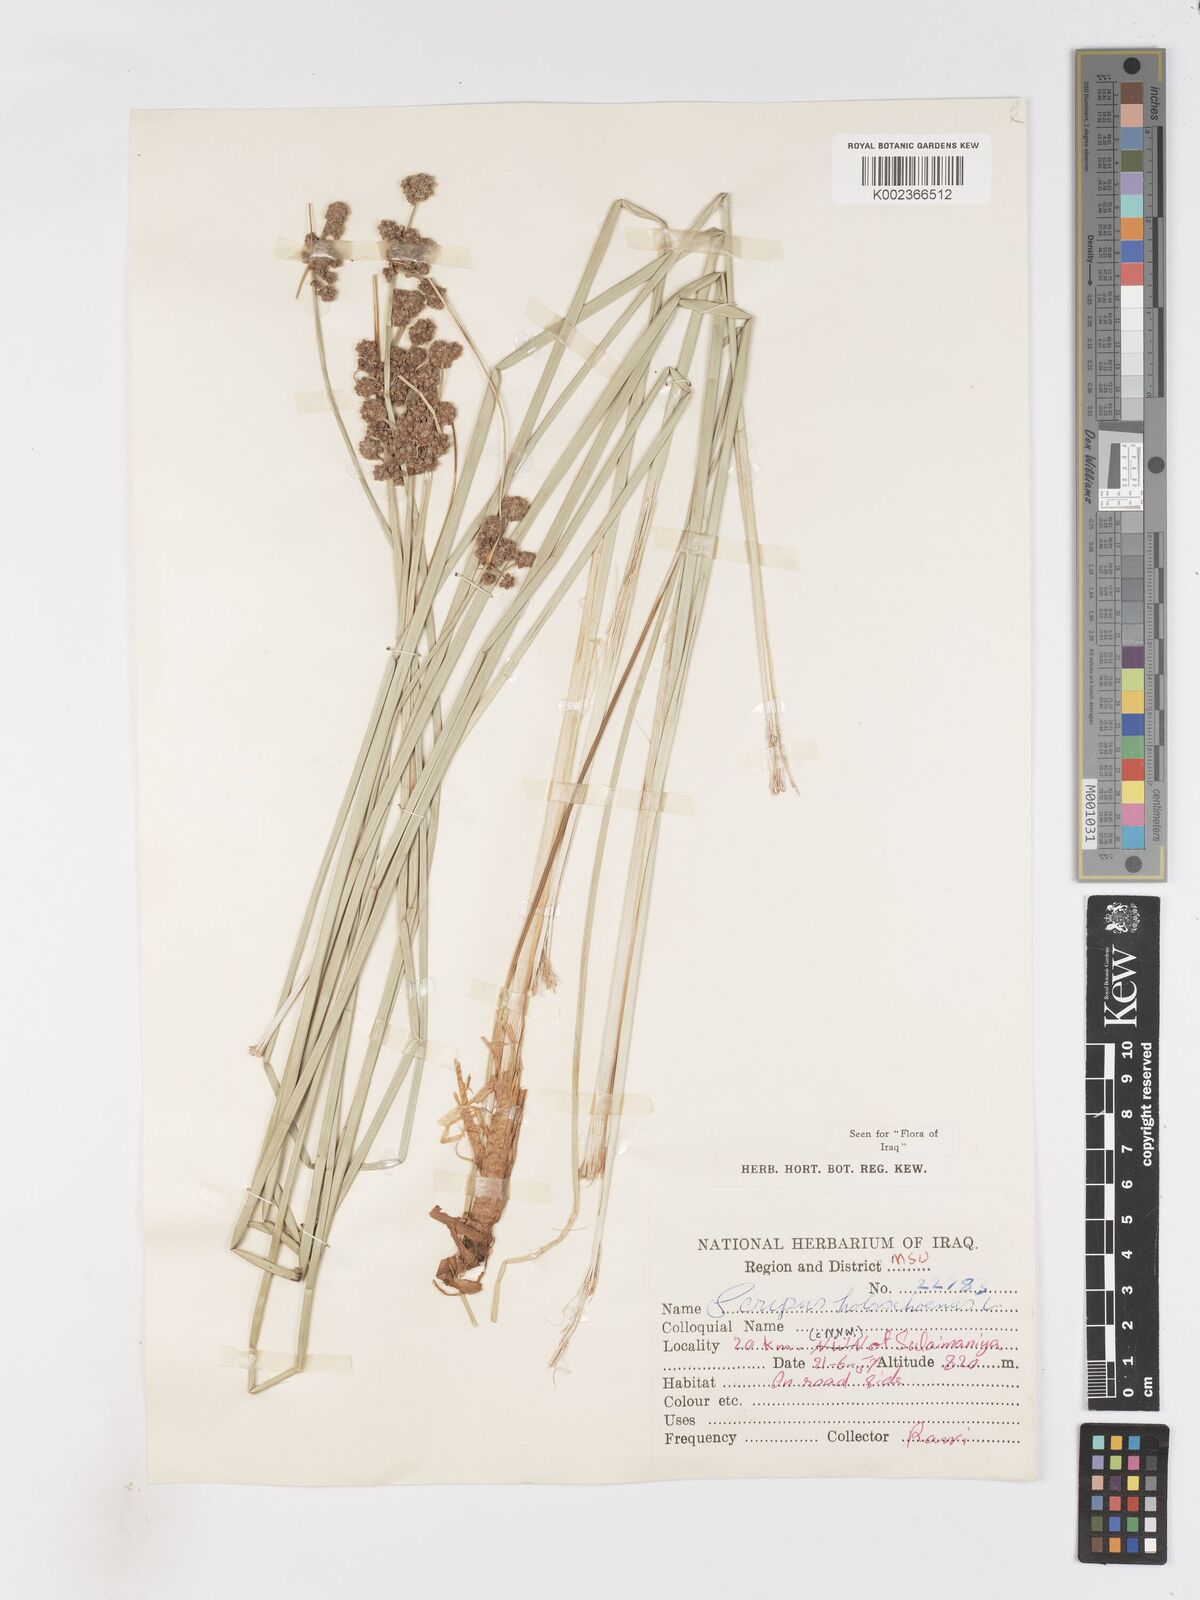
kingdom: Plantae
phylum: Tracheophyta
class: Liliopsida
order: Poales
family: Cyperaceae
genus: Scirpoides
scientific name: Scirpoides holoschoenus
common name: Round-headed club-rush
